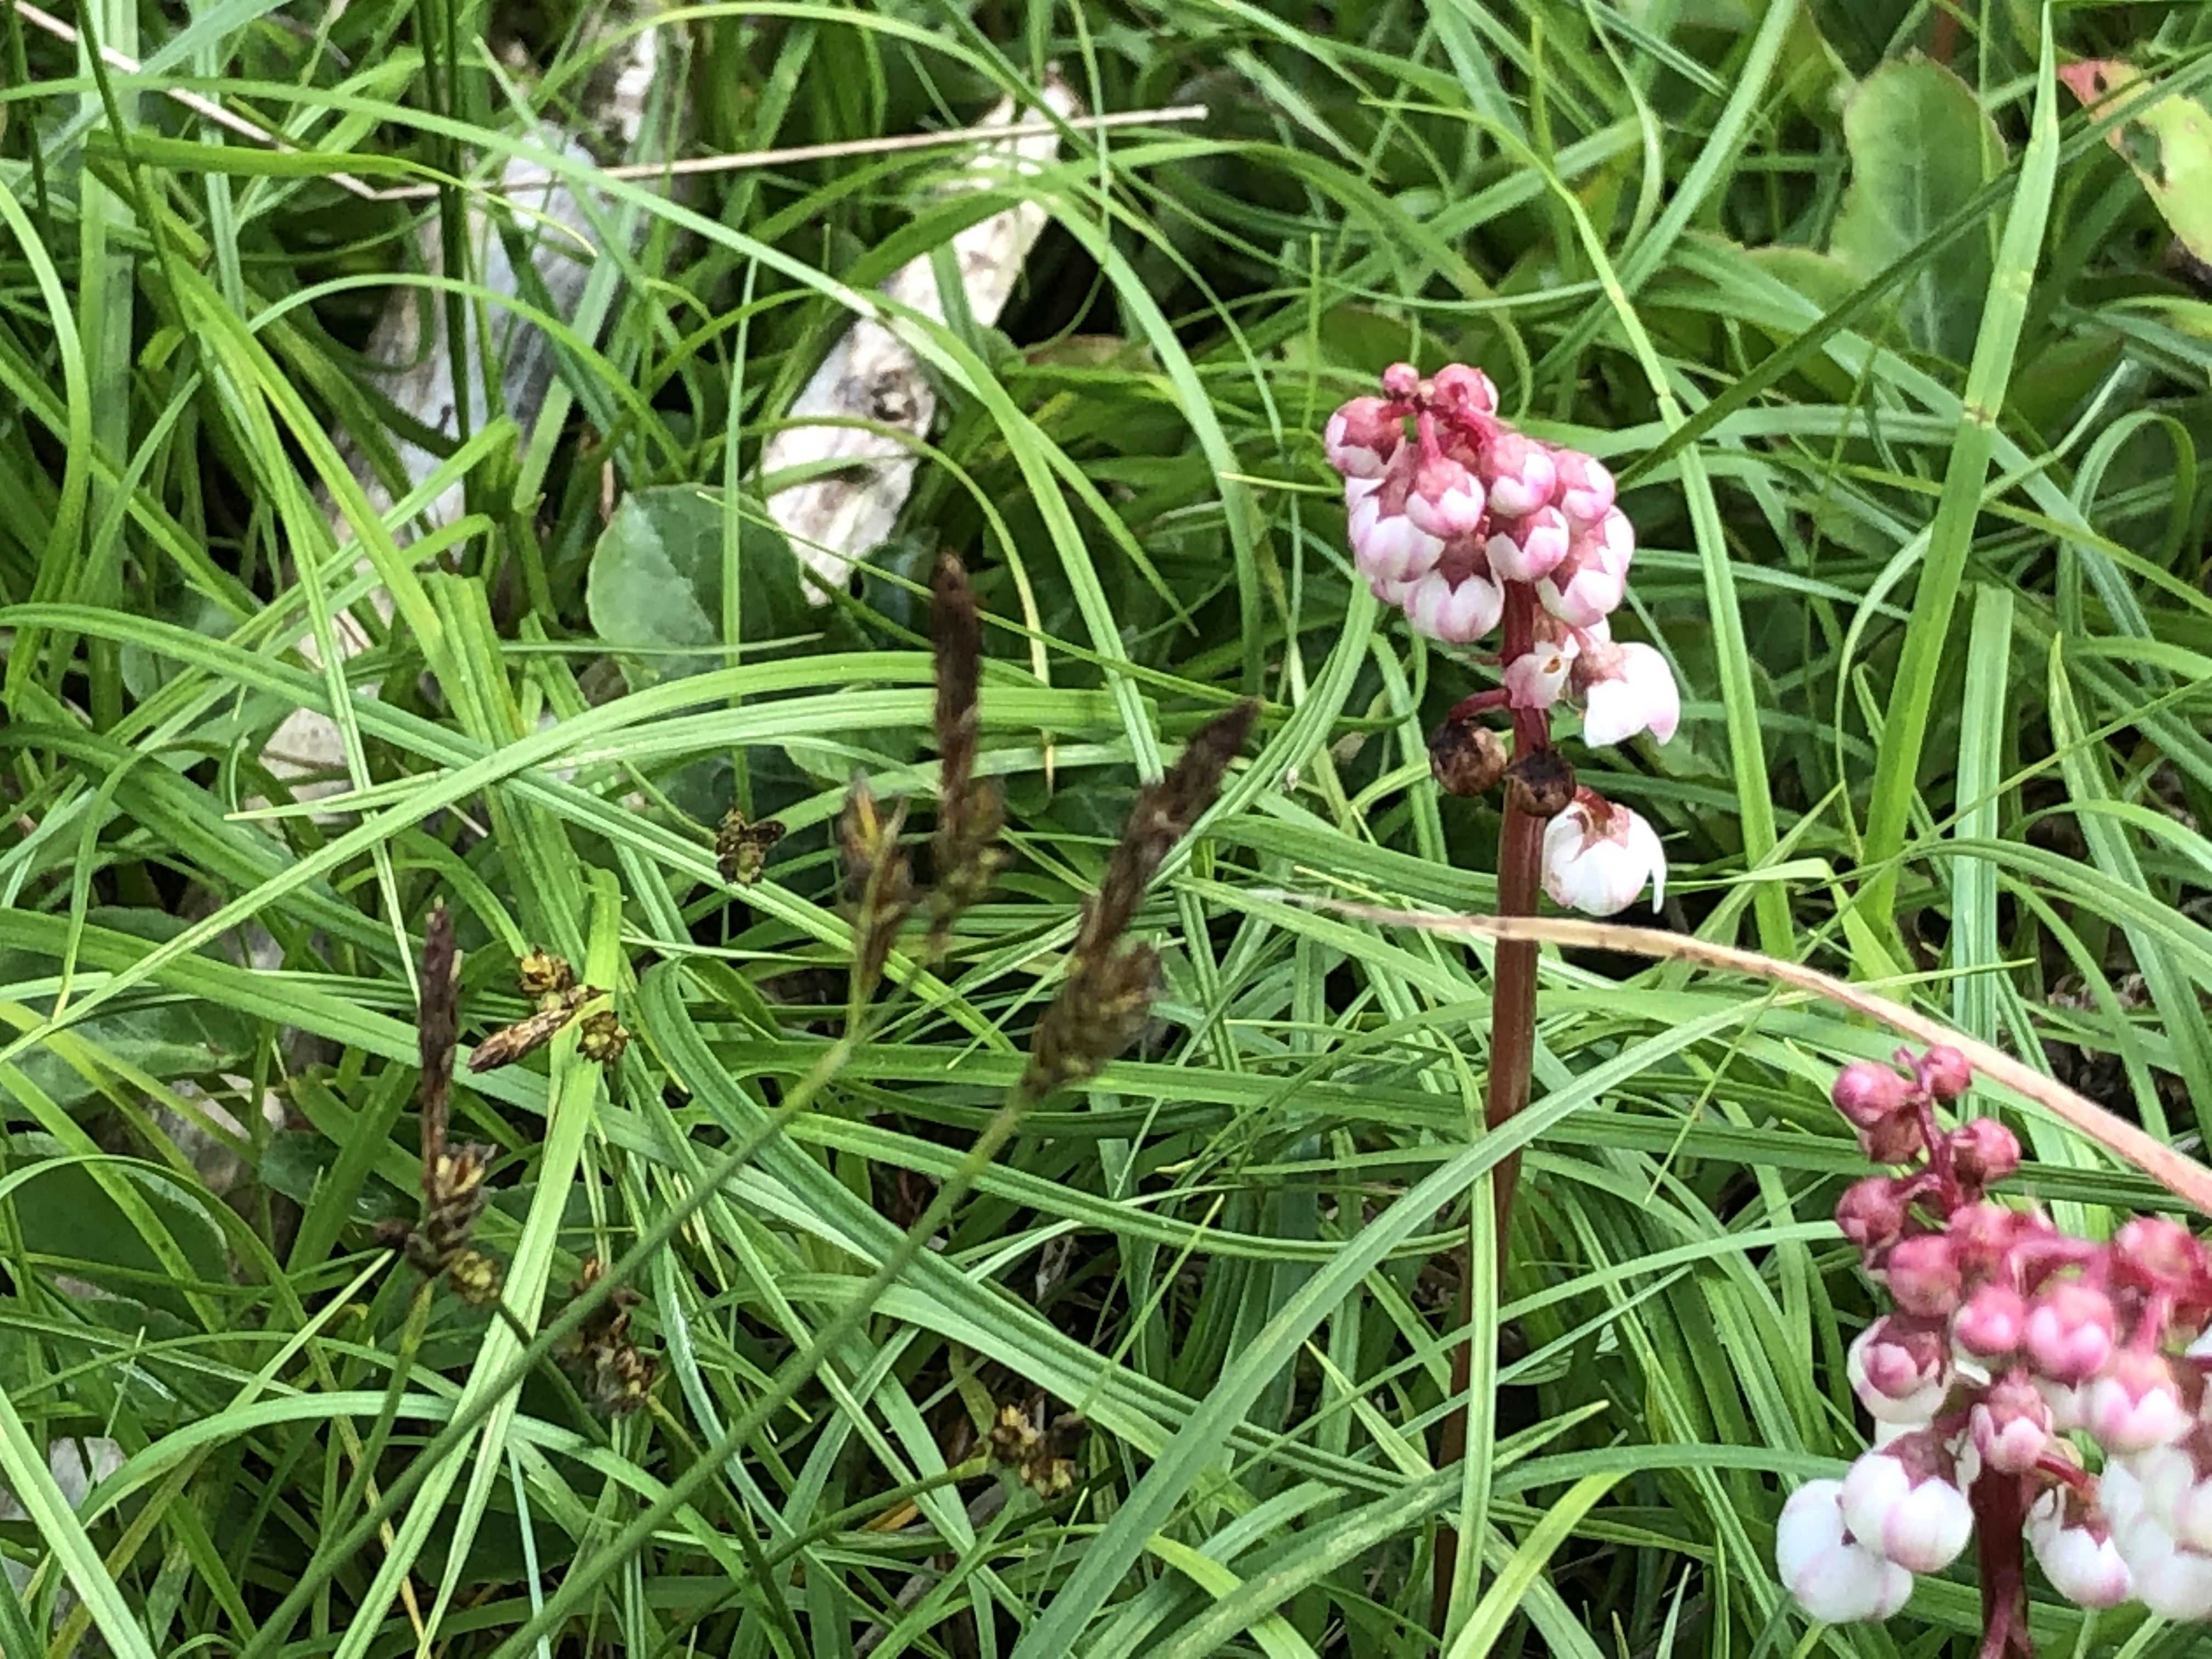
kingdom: Plantae
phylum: Tracheophyta
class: Liliopsida
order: Poales
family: Cyperaceae
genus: Carex
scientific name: Carex caryophyllea
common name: Vår-star
